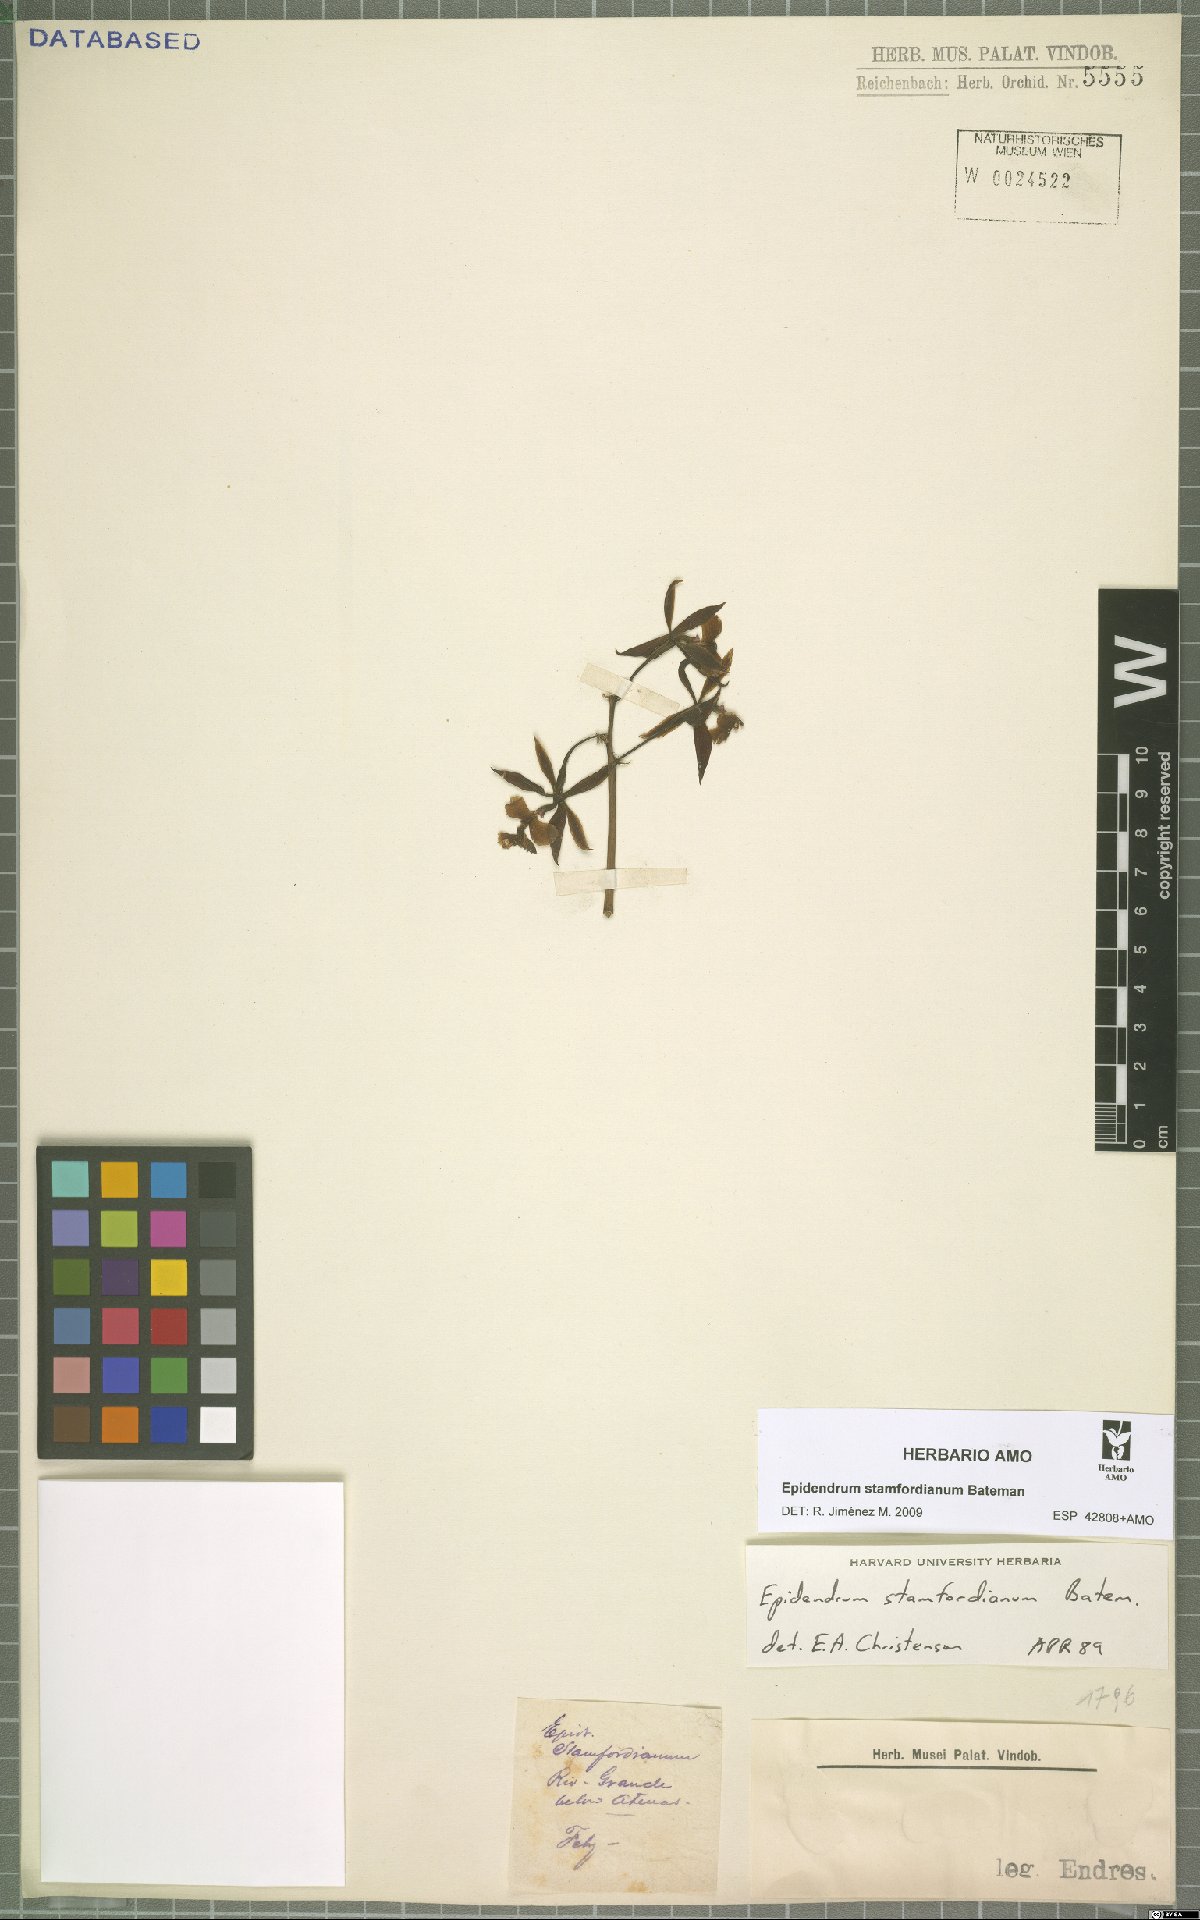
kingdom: Plantae
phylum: Tracheophyta
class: Liliopsida
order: Asparagales
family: Orchidaceae
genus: Epidendrum
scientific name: Epidendrum stamfordianum
